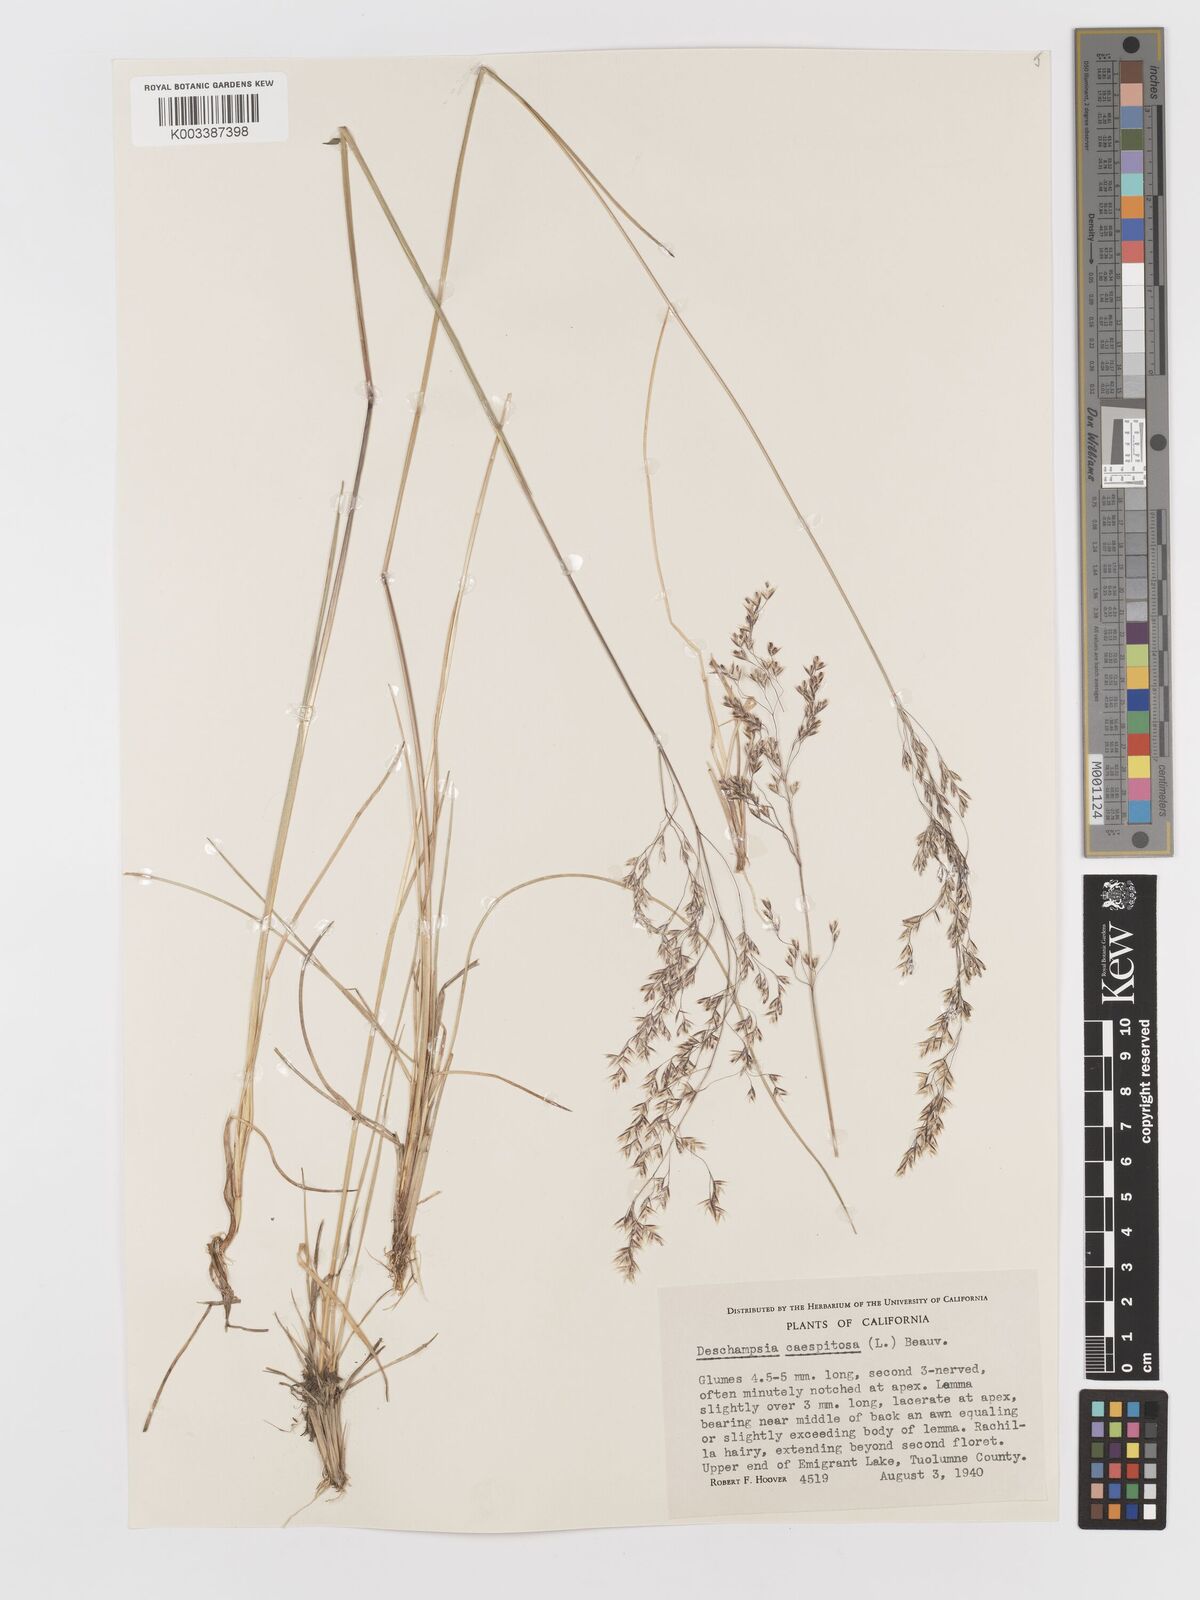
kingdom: Plantae
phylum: Tracheophyta
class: Liliopsida
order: Poales
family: Poaceae
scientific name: Poaceae
